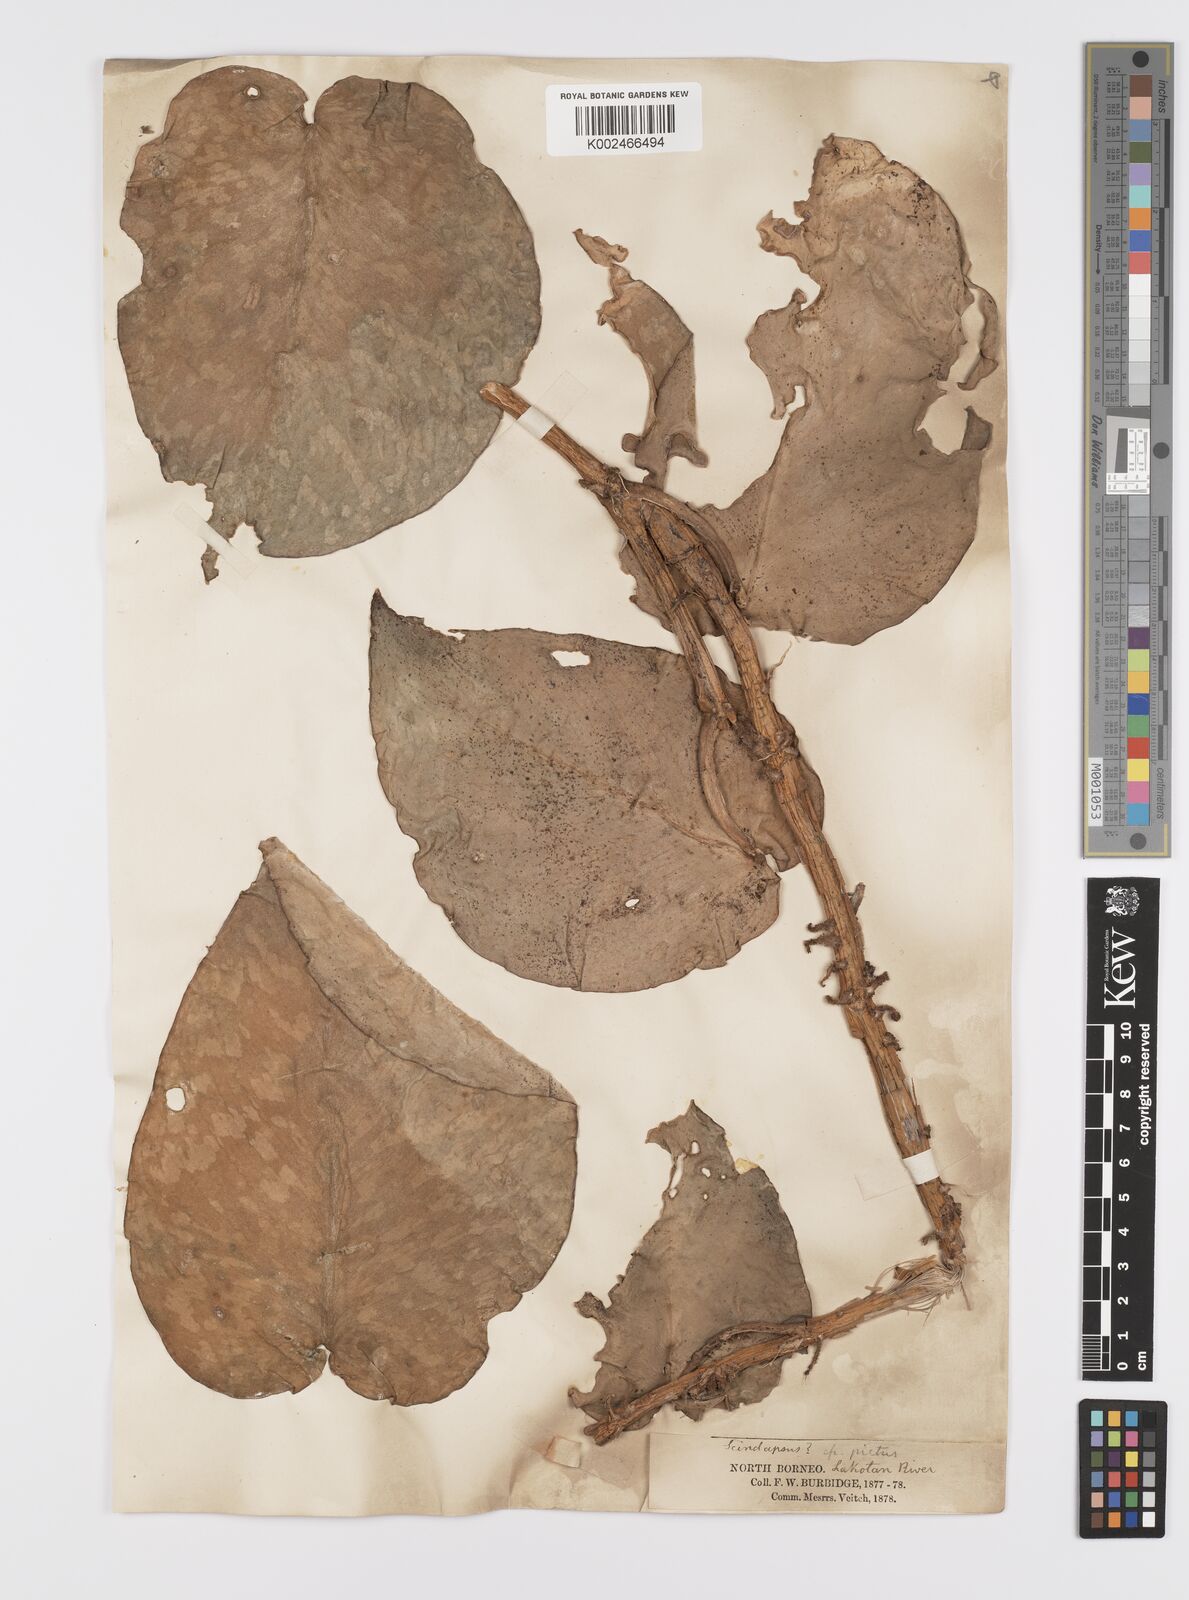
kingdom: Plantae
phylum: Tracheophyta
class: Liliopsida
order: Alismatales
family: Araceae
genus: Scindapsus
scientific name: Scindapsus pictus
